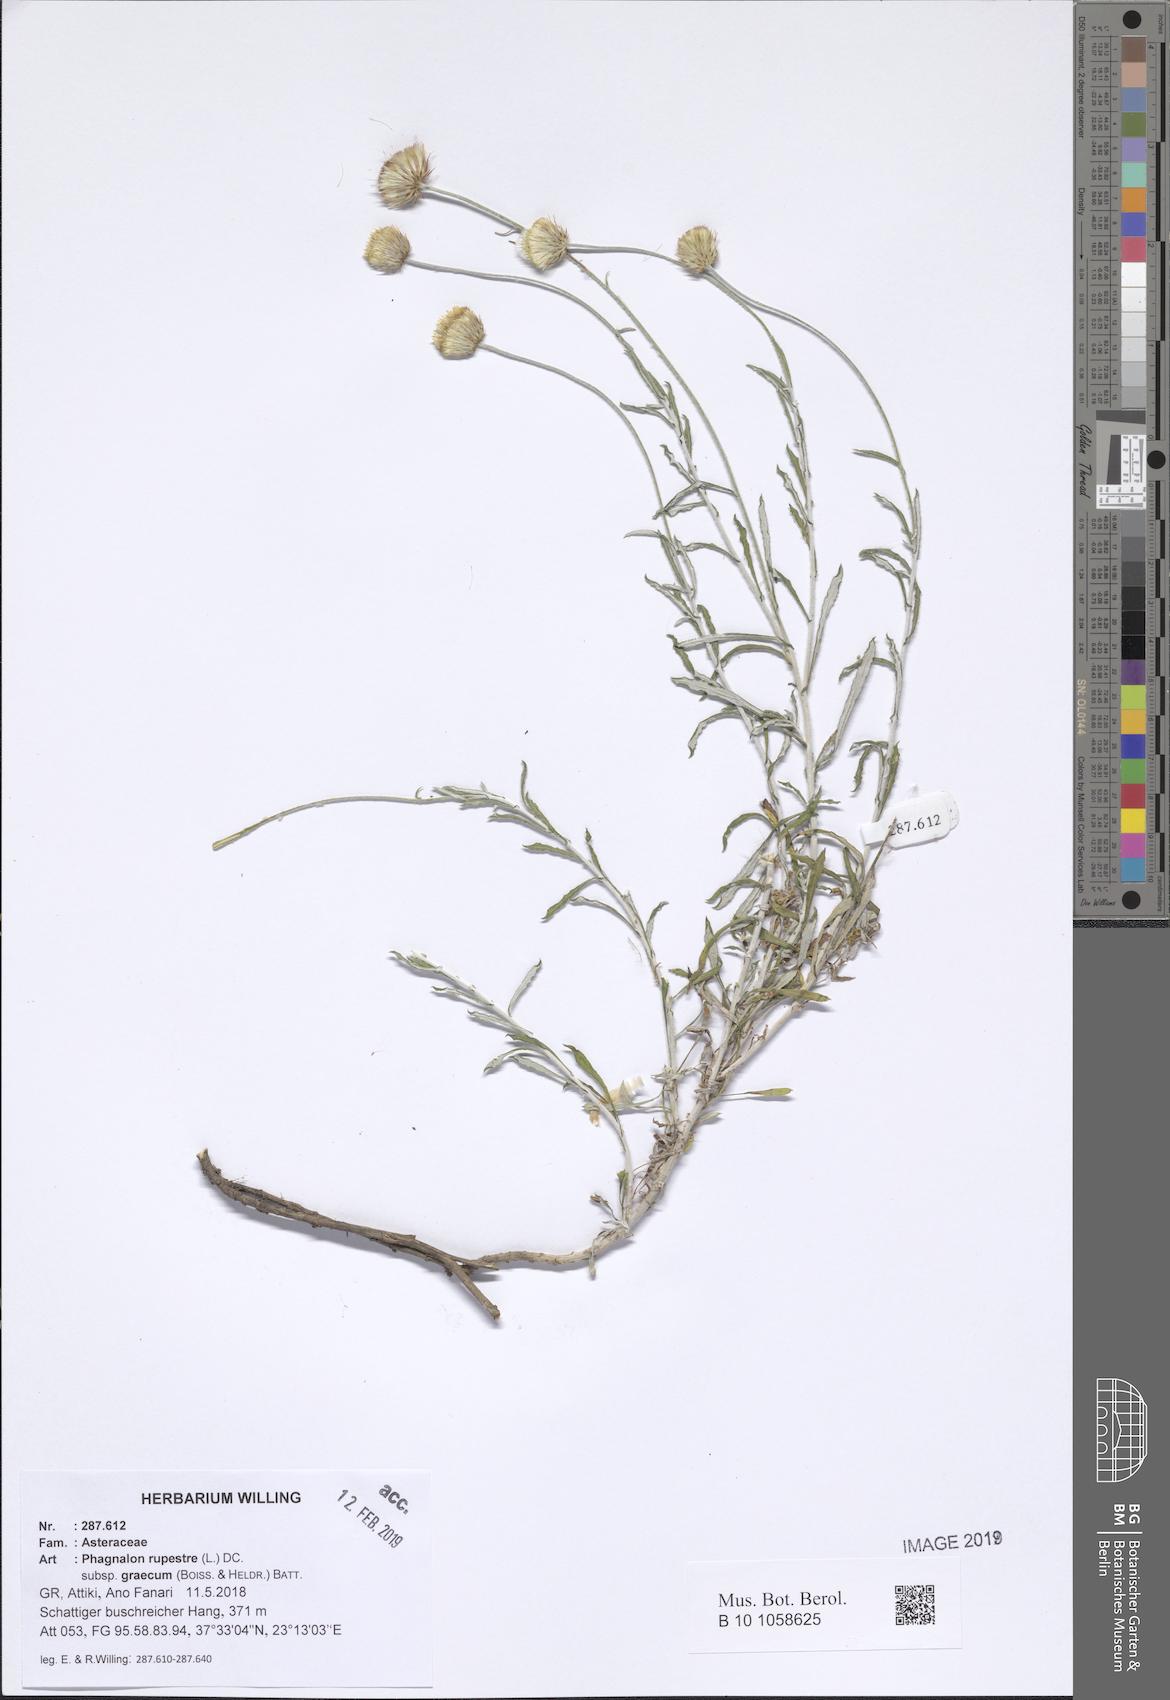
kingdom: Plantae
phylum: Tracheophyta
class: Magnoliopsida
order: Asterales
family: Asteraceae
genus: Phagnalon
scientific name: Phagnalon graecum
